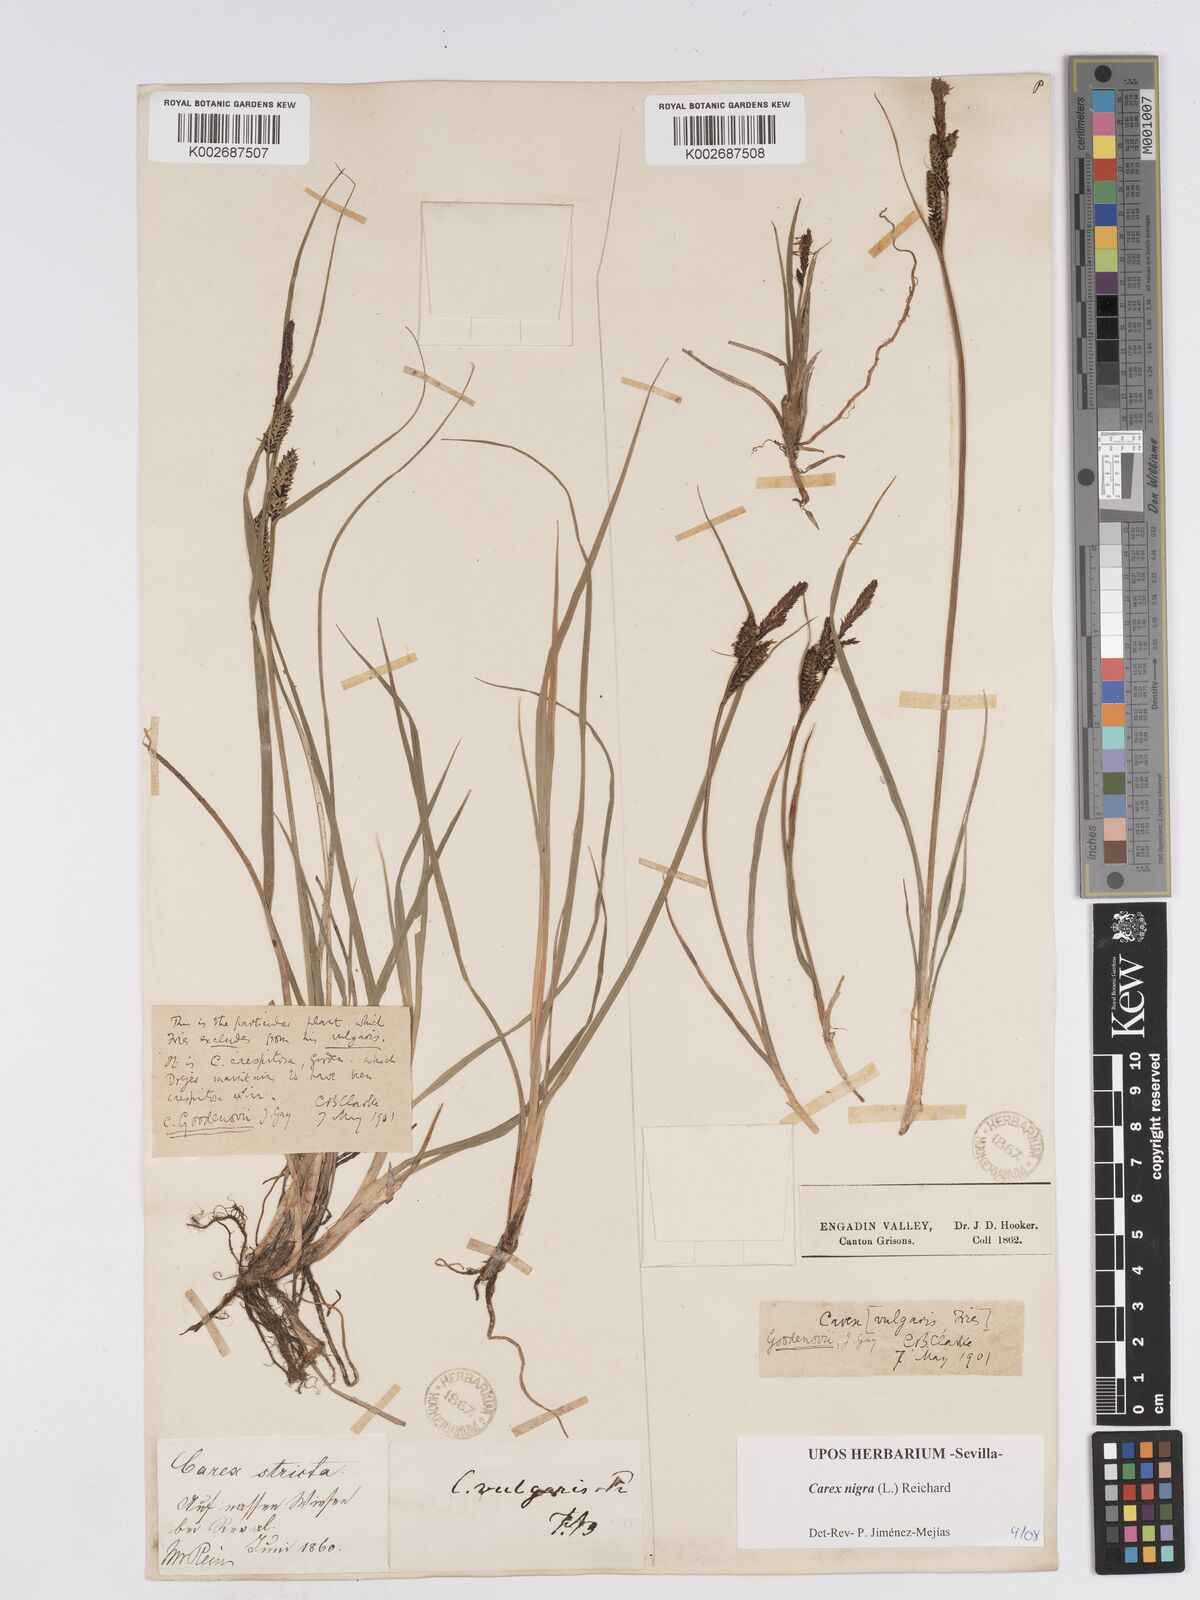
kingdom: Plantae
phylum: Tracheophyta
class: Liliopsida
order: Poales
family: Cyperaceae
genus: Carex
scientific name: Carex nigra
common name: Common sedge
